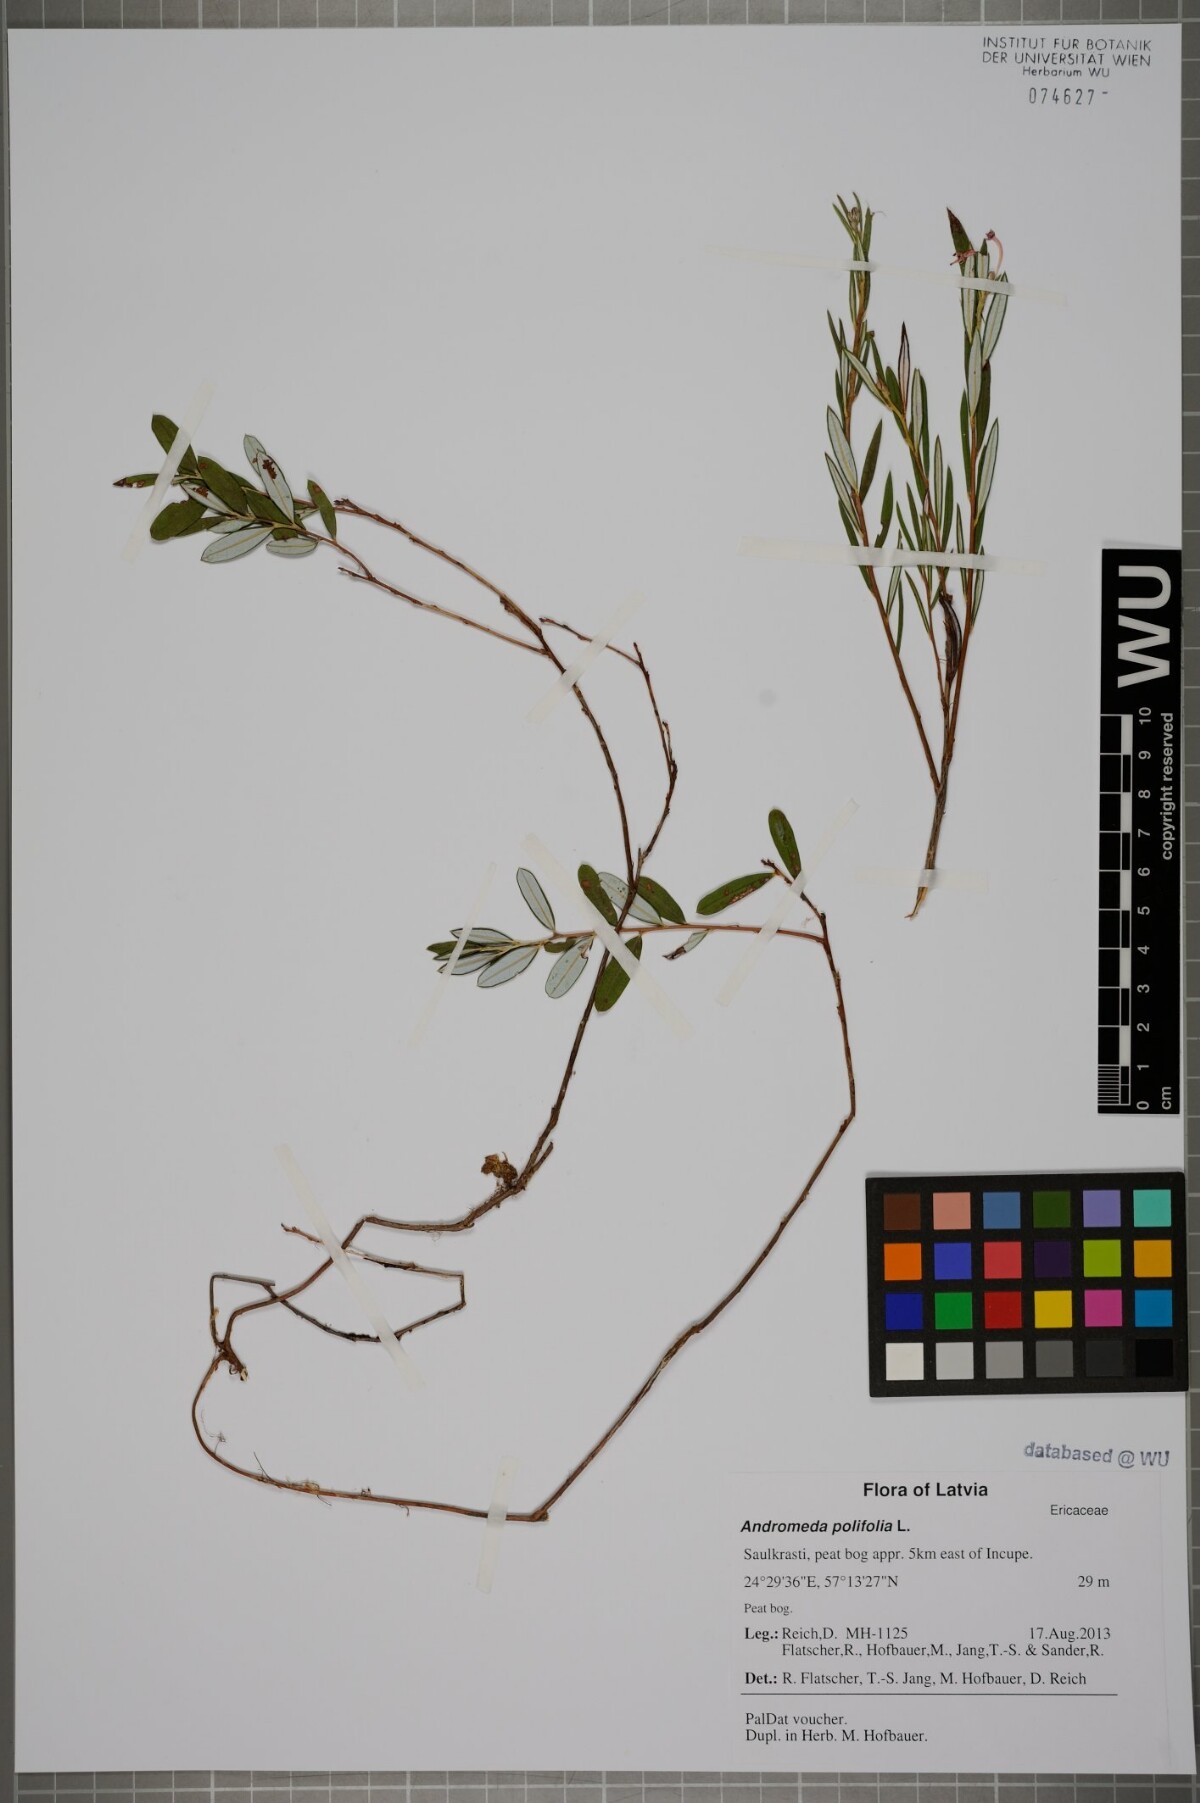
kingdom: Plantae
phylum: Tracheophyta
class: Magnoliopsida
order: Ericales
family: Ericaceae
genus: Andromeda
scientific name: Andromeda polifolia
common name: Bog-rosemary
